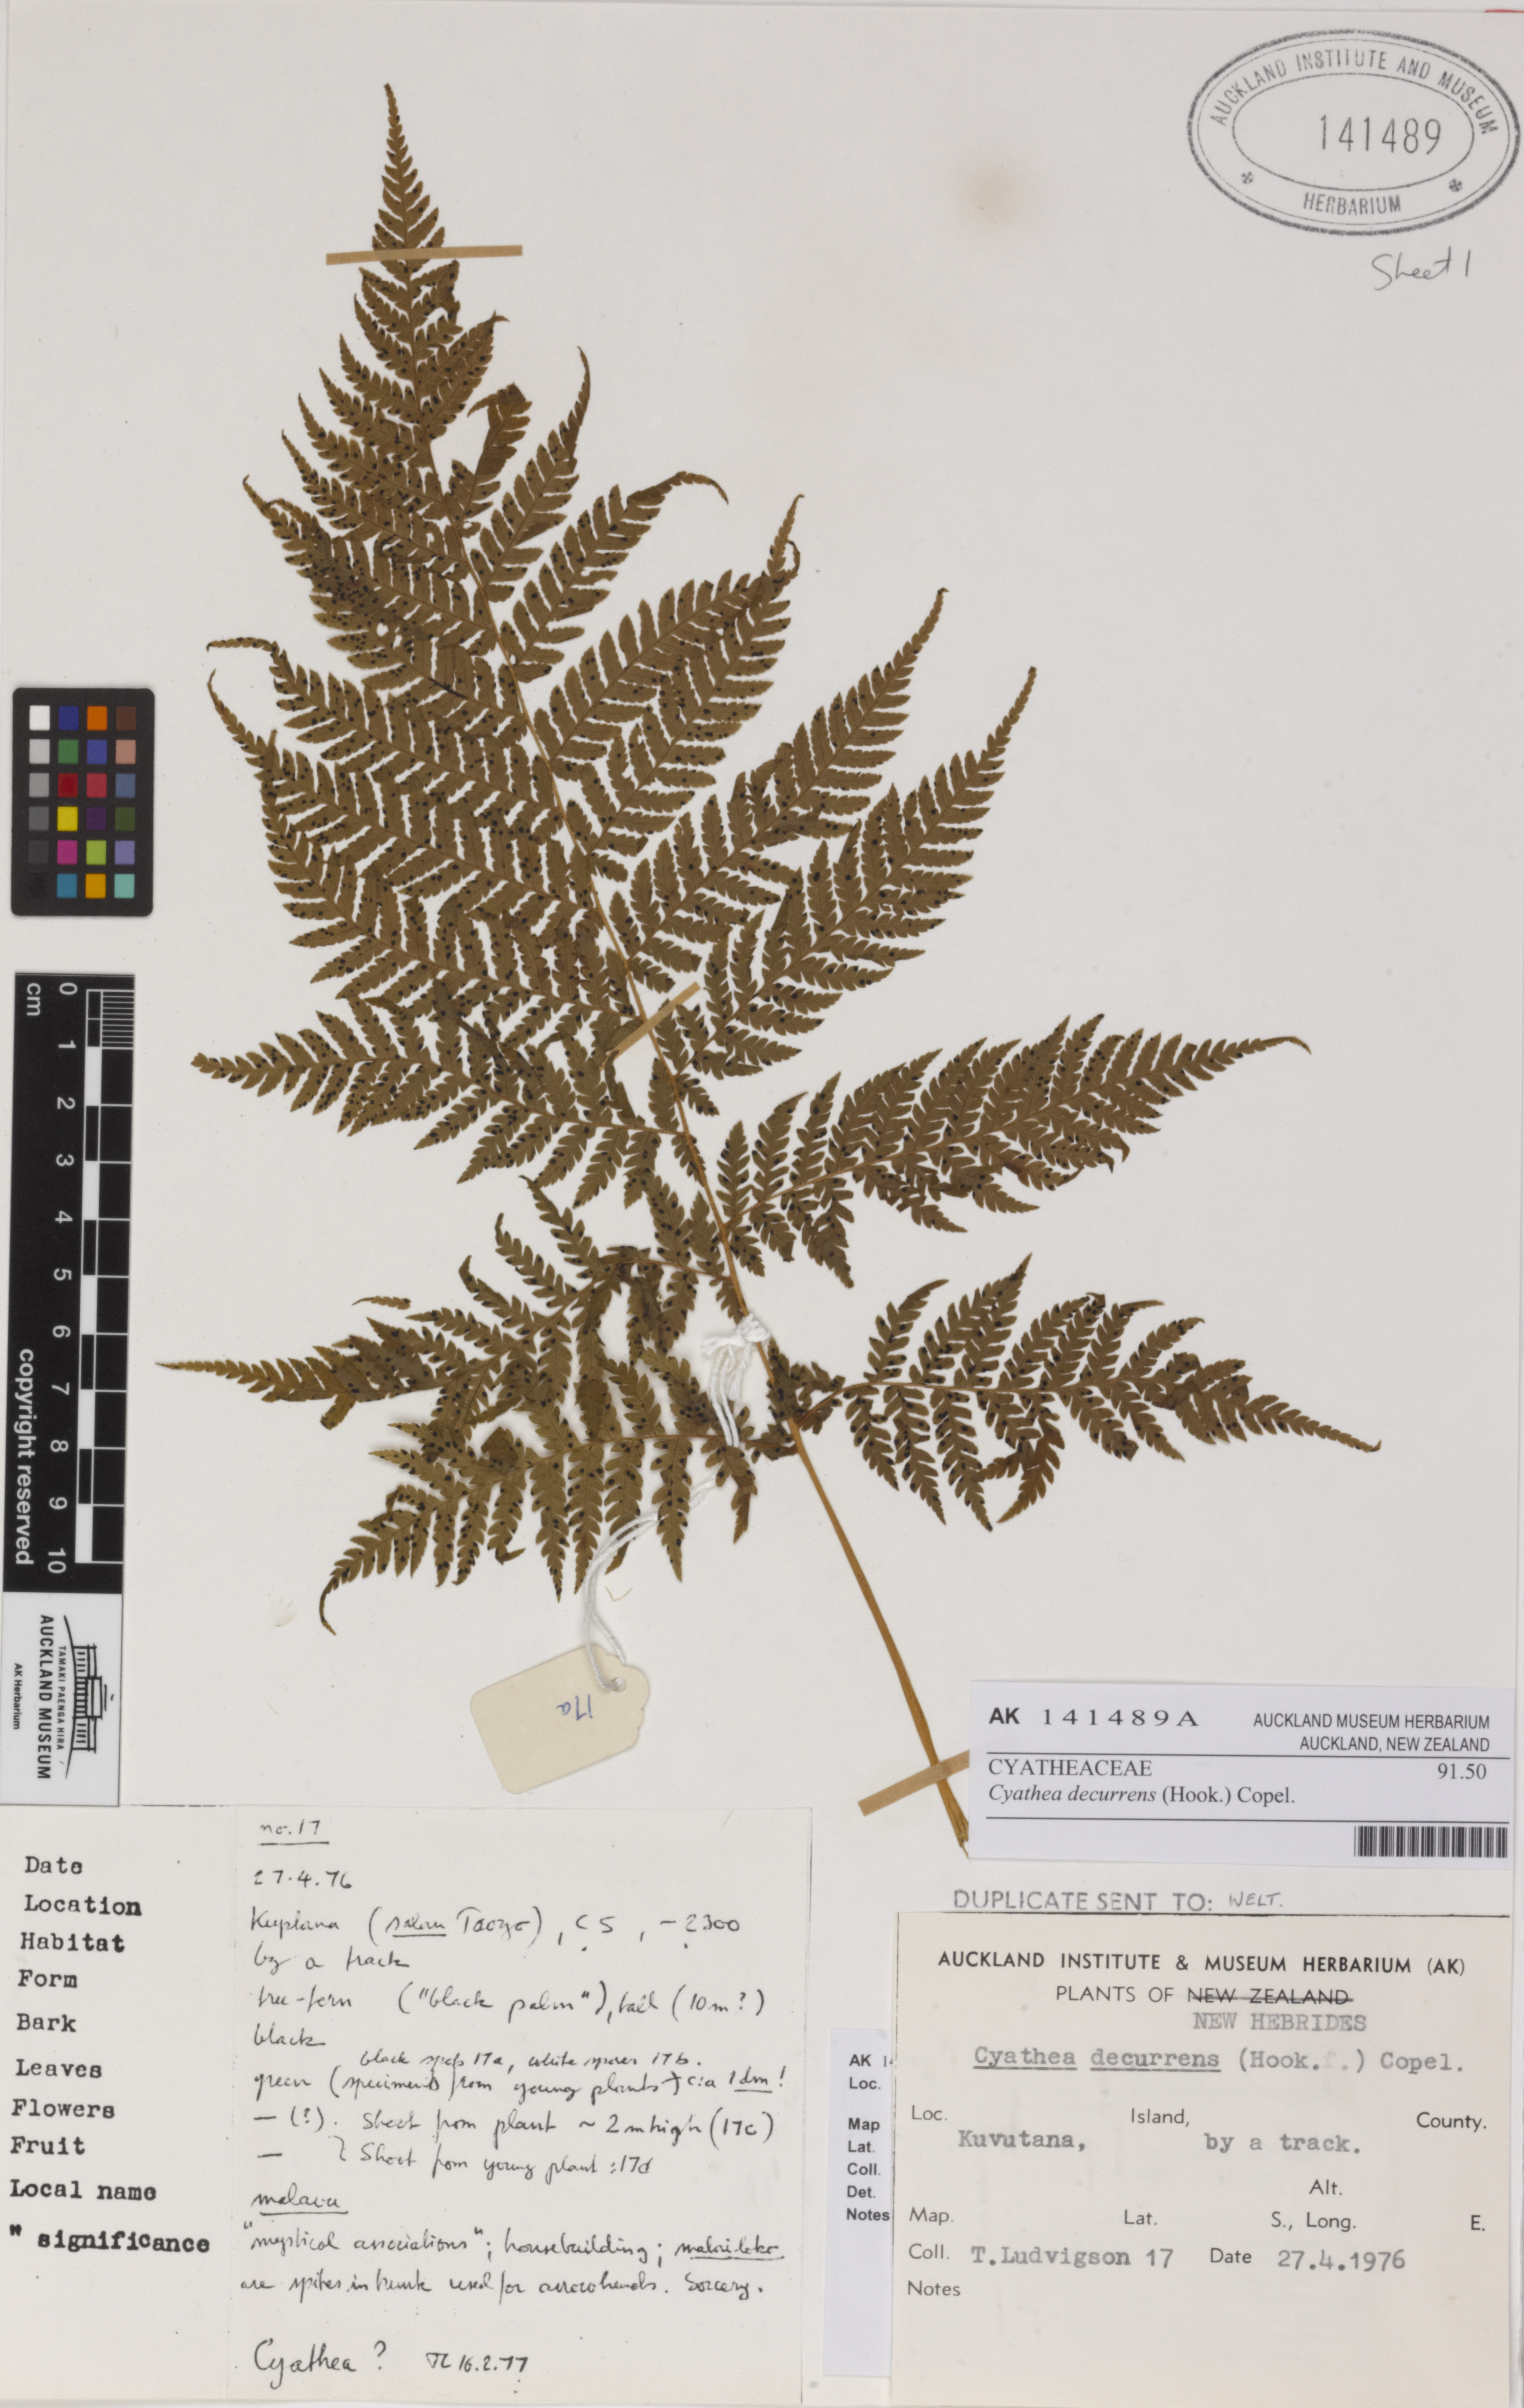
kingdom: Plantae
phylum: Tracheophyta
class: Polypodiopsida
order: Cyatheales
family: Cyatheaceae
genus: Cyathea
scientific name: Cyathea decurrens
